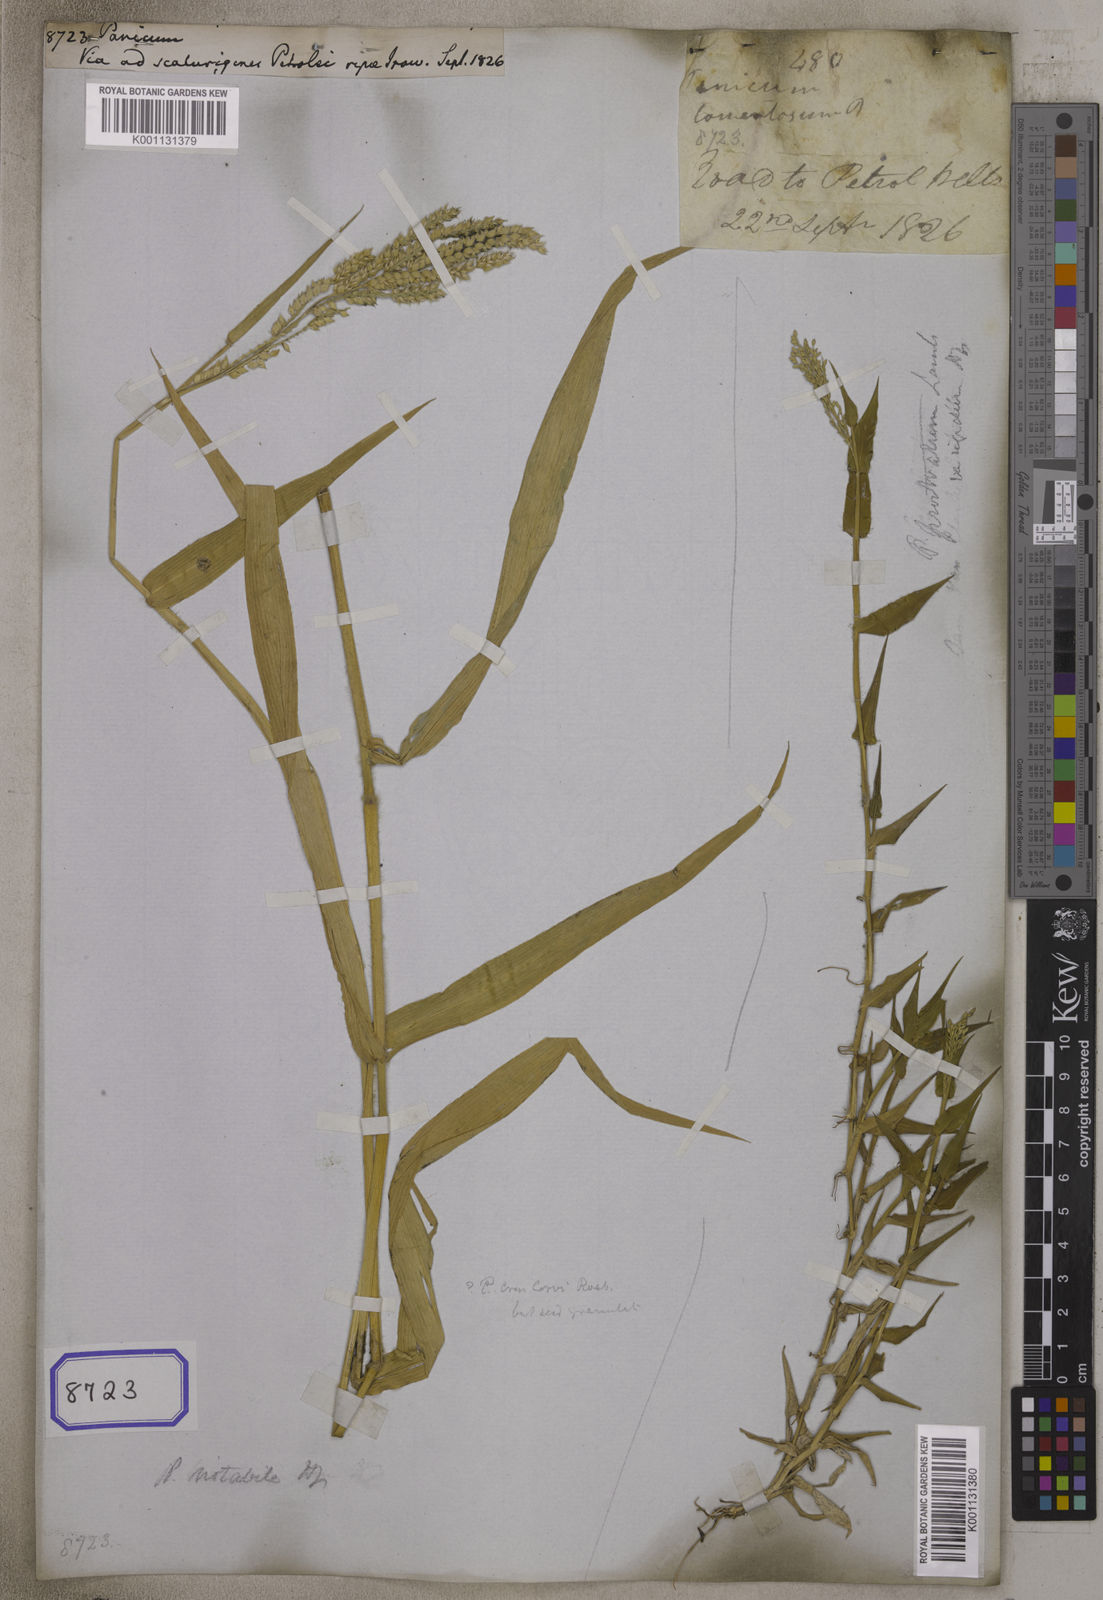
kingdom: Plantae
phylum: Tracheophyta
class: Liliopsida
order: Poales
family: Poaceae
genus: Panicum
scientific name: Panicum
